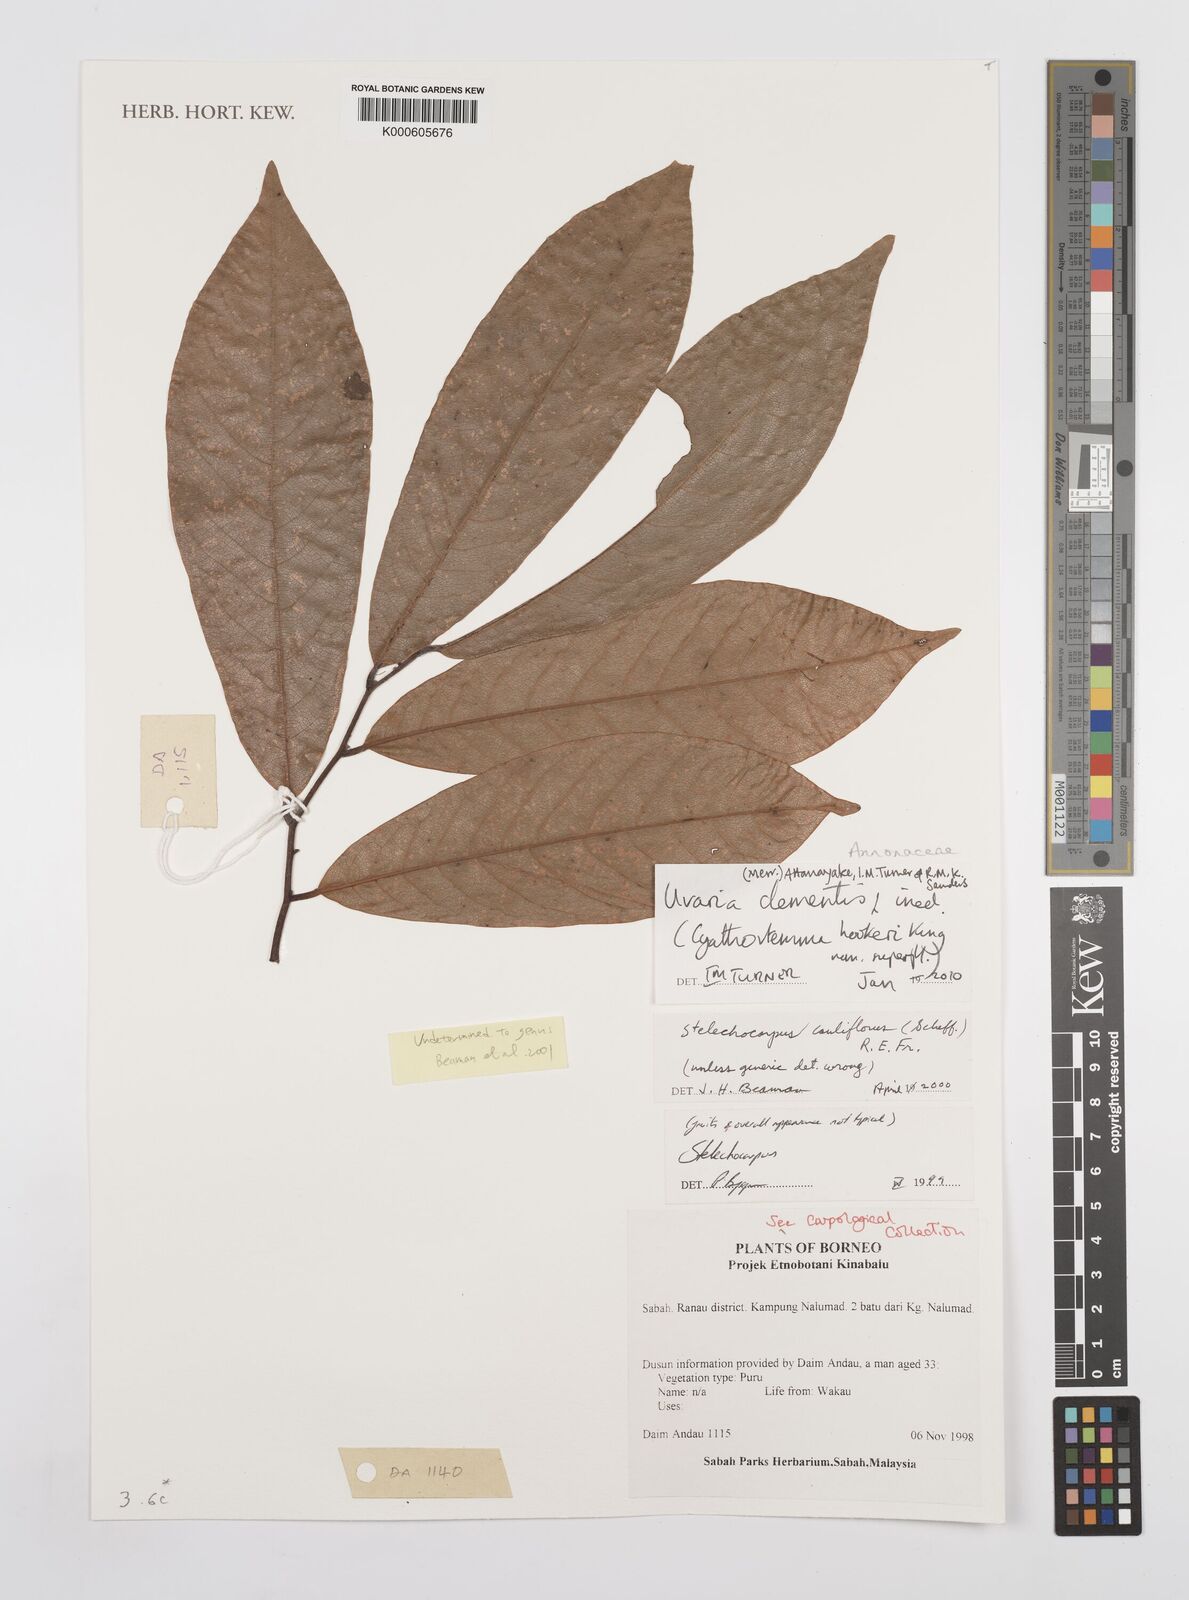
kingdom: Plantae
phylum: Tracheophyta
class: Magnoliopsida
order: Magnoliales
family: Annonaceae
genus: Uvaria
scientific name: Uvaria
